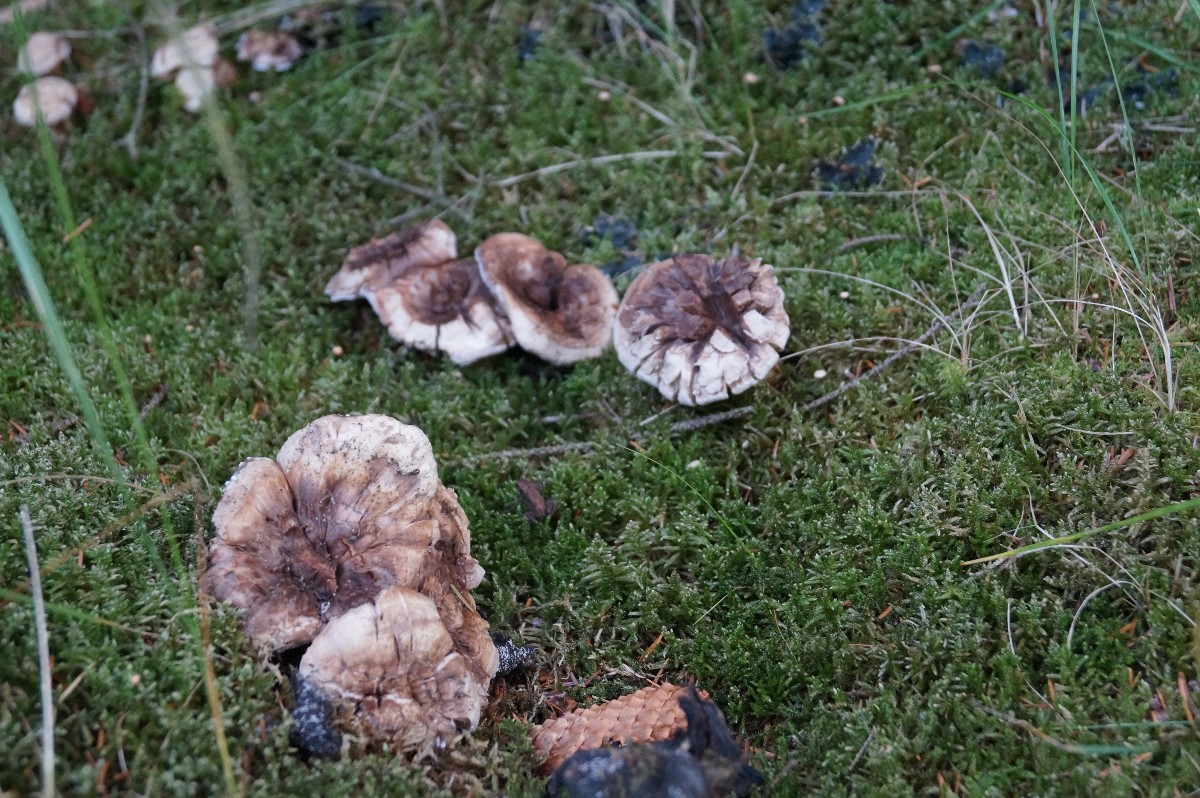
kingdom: Fungi
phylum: Basidiomycota
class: Agaricomycetes
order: Thelephorales
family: Thelephoraceae
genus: Phellodon
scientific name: Phellodon violascens
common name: violetbrun duftpigsvamp
